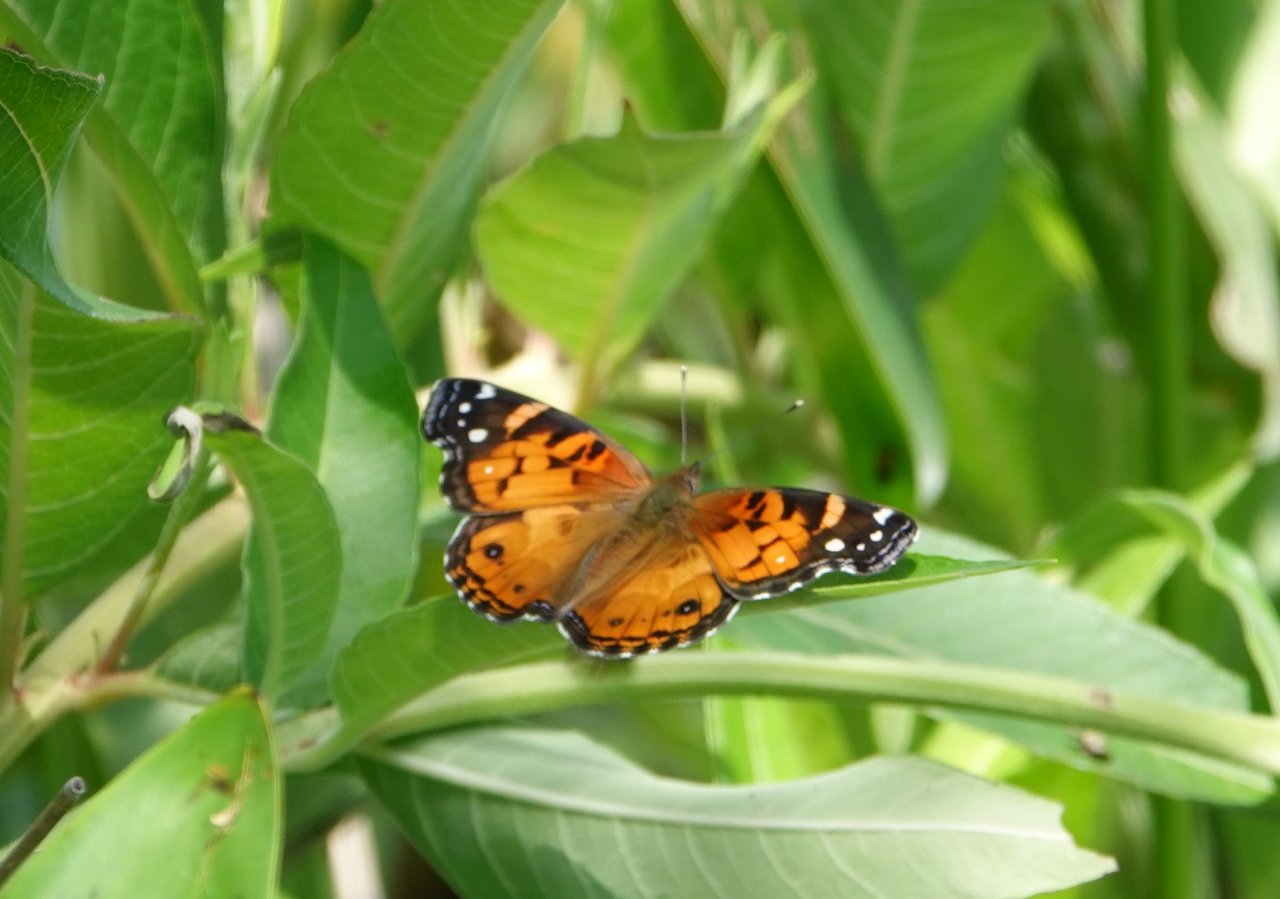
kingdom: Animalia
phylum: Arthropoda
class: Insecta
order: Lepidoptera
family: Nymphalidae
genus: Vanessa
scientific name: Vanessa virginiensis
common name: American Lady
